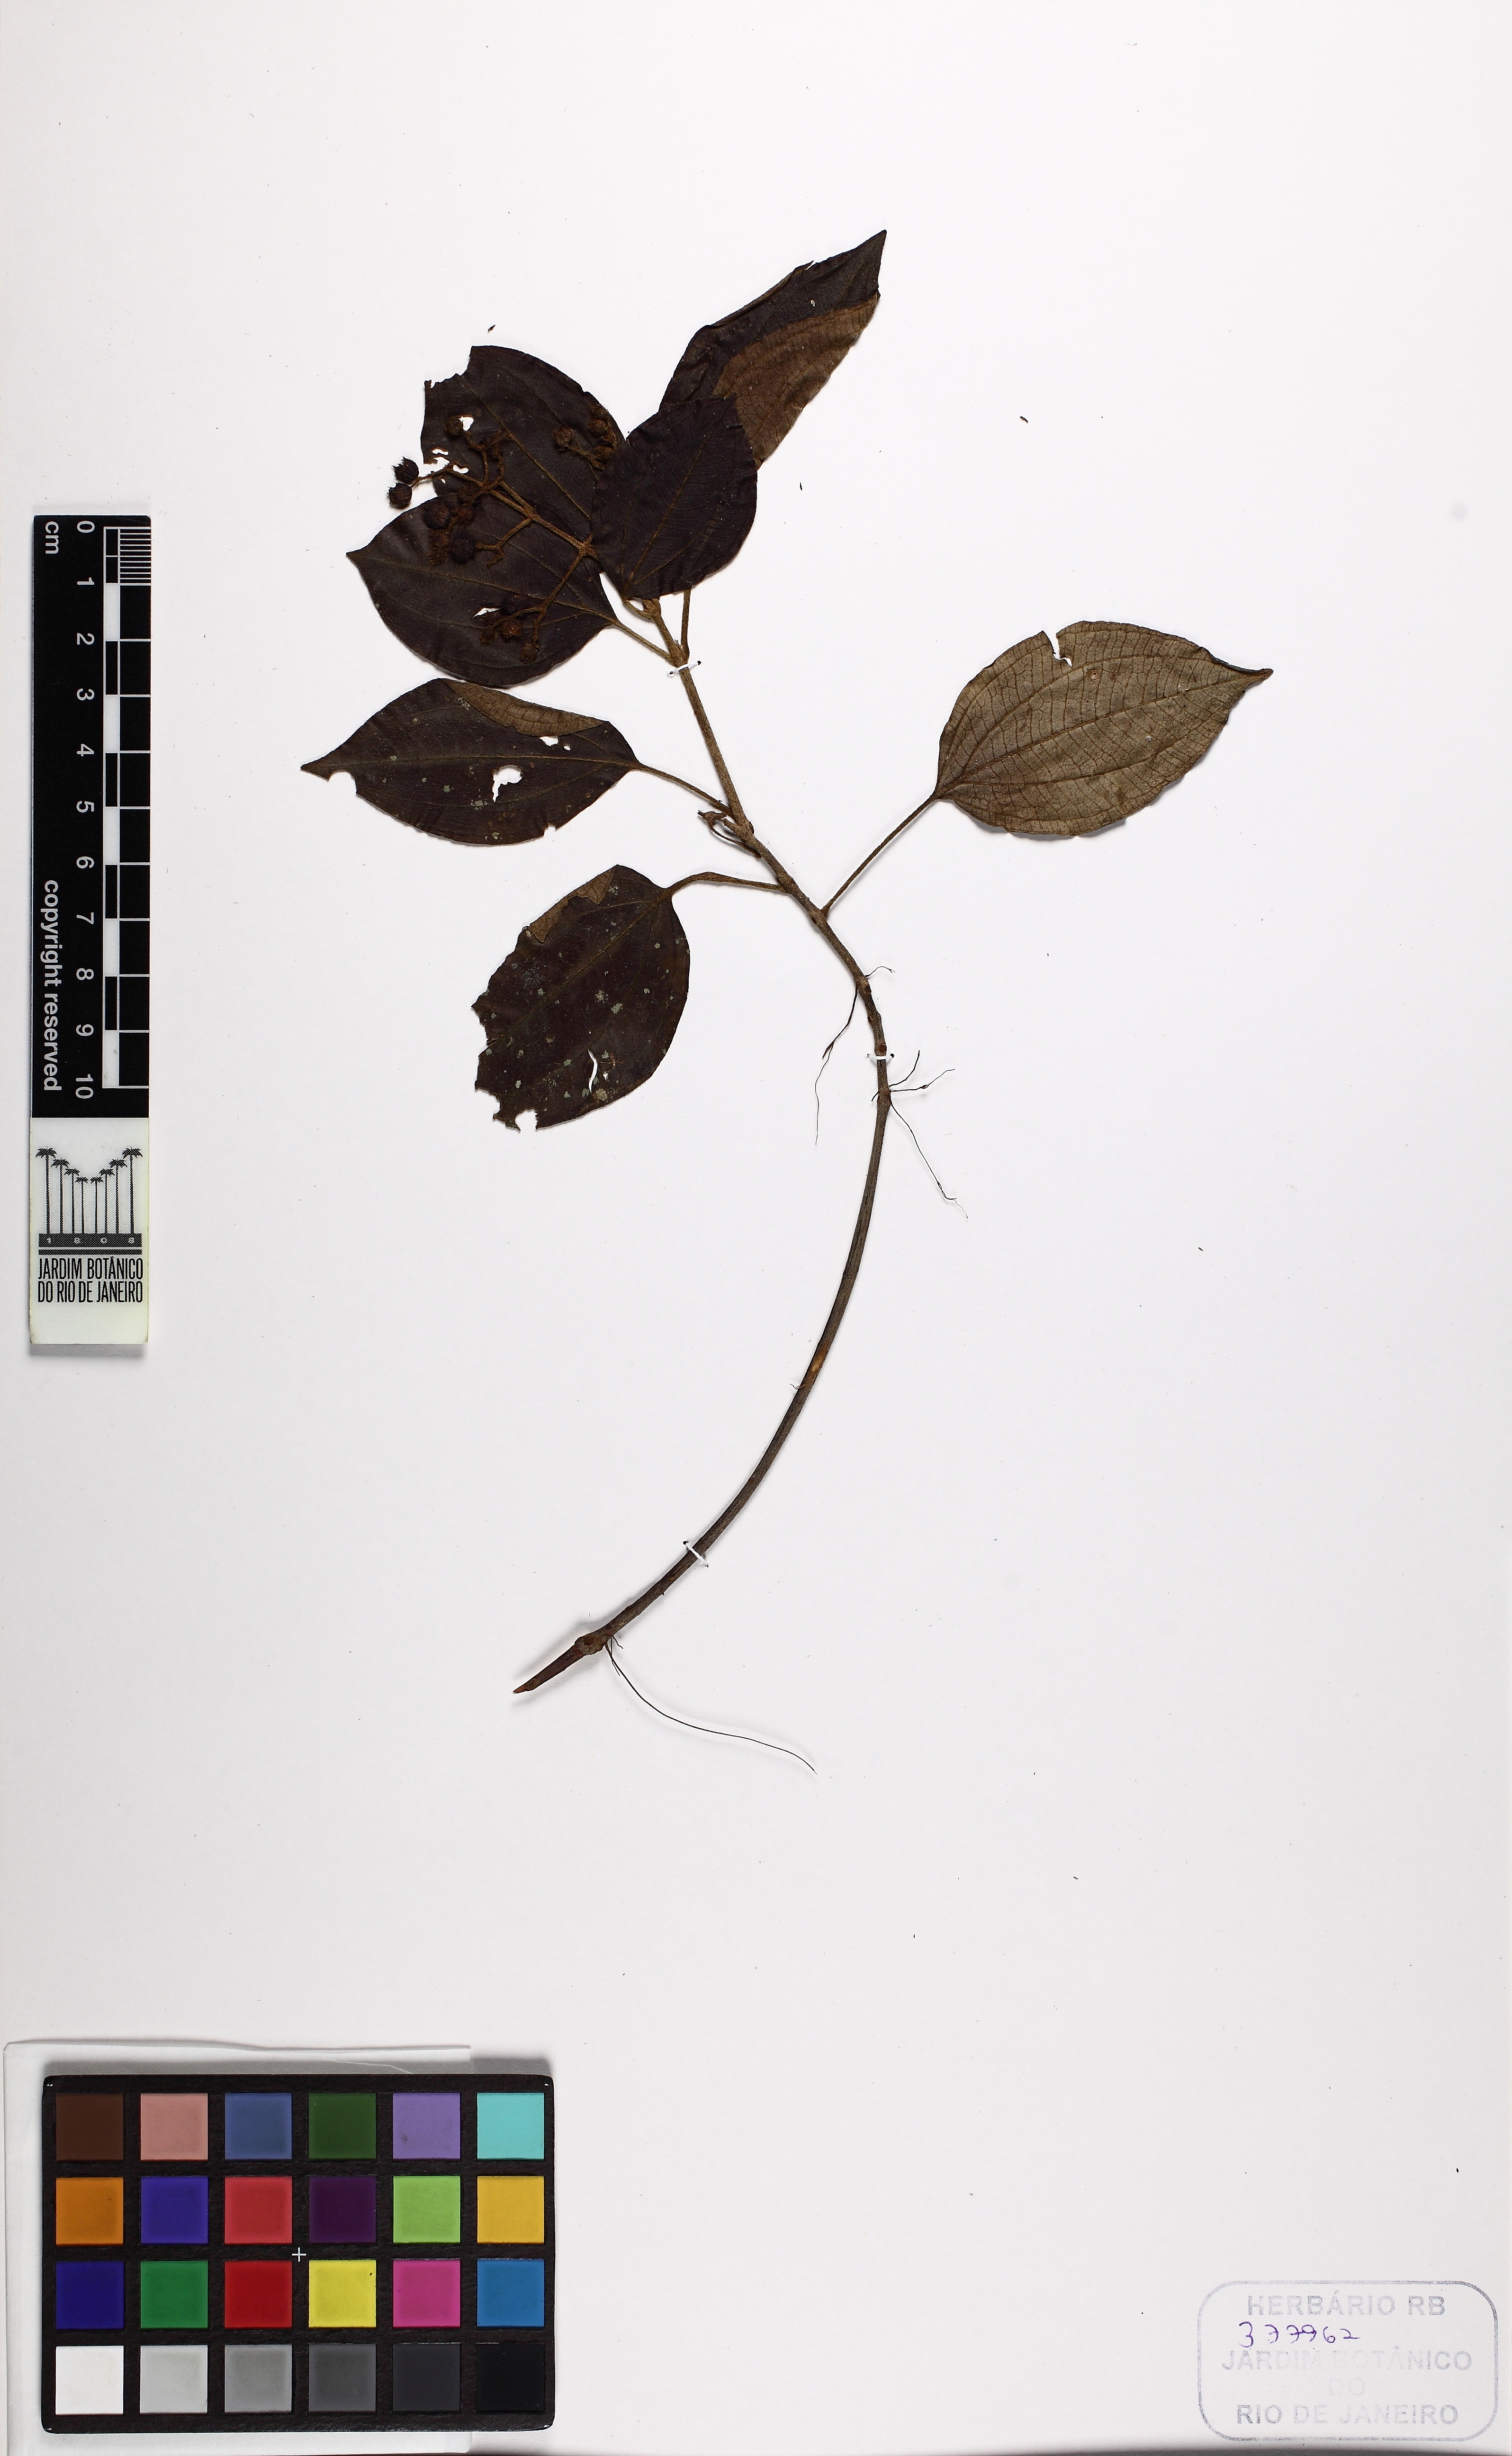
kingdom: Plantae
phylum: Tracheophyta
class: Magnoliopsida
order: Myrtales
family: Melastomataceae
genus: Miconia
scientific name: Miconia rhamnifolia
